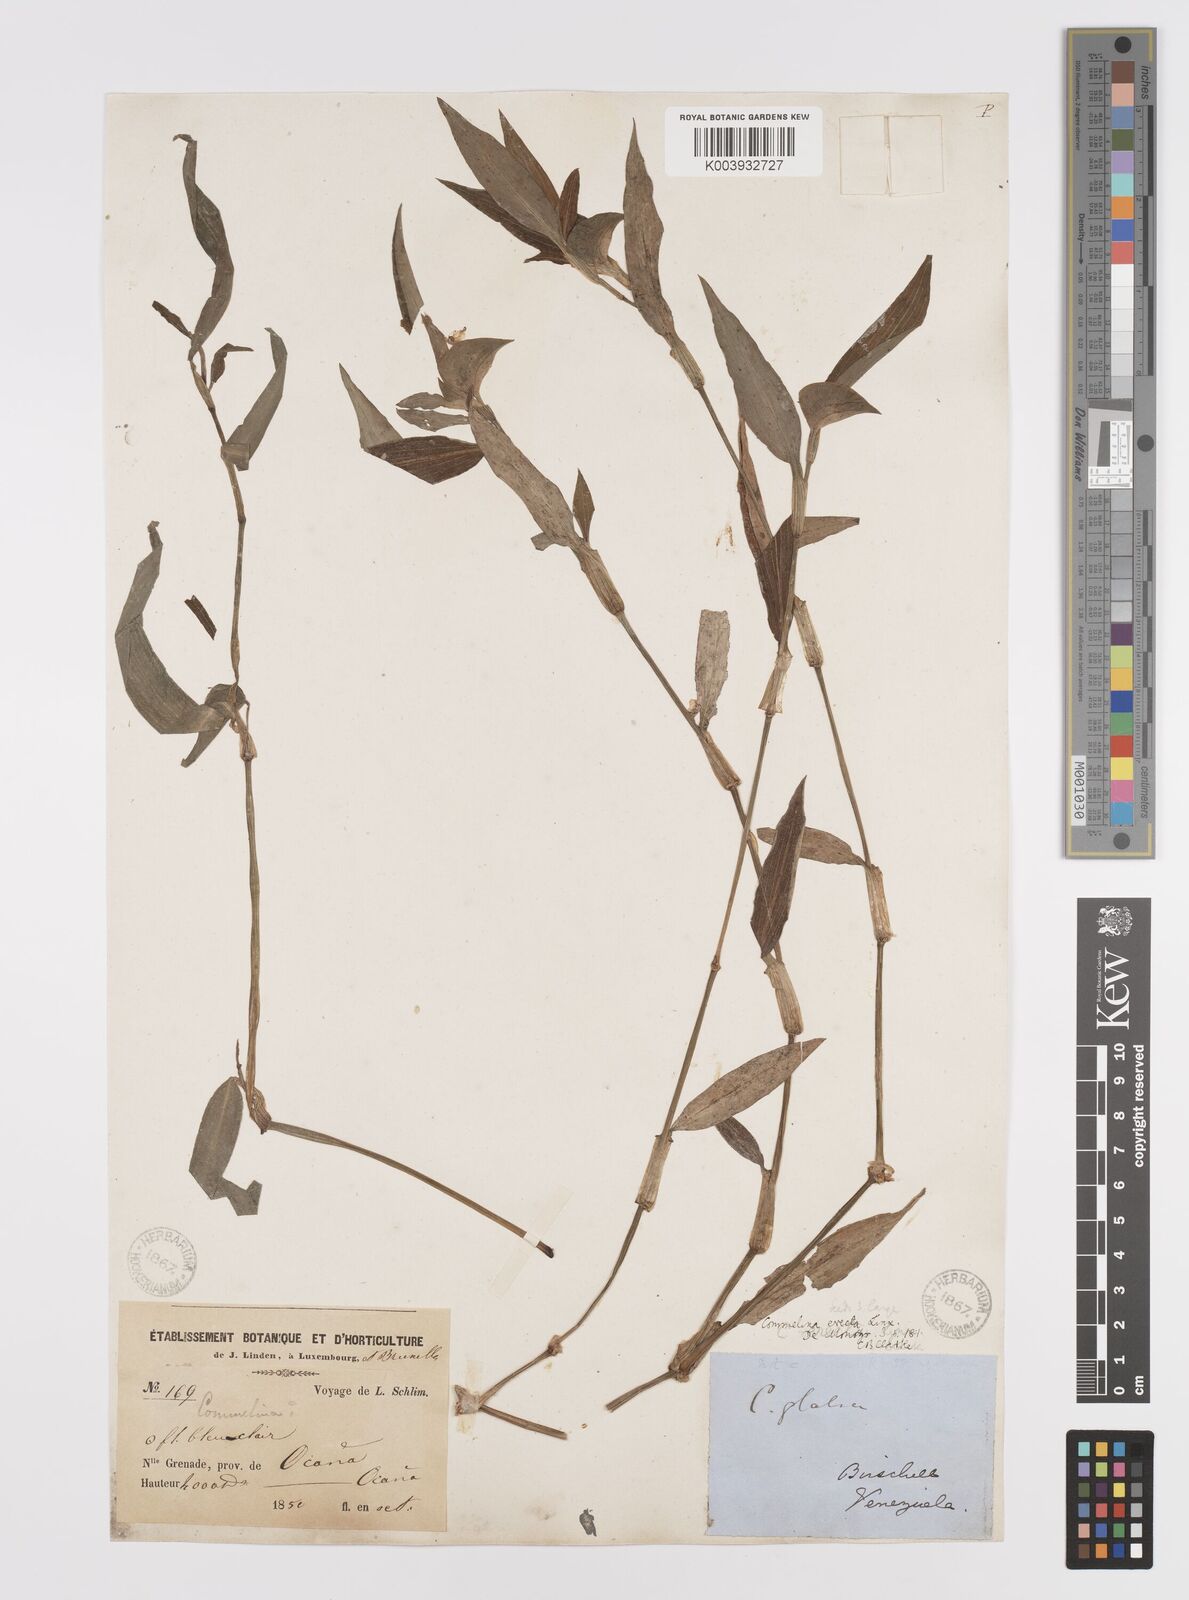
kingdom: Plantae
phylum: Tracheophyta
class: Liliopsida
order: Commelinales
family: Commelinaceae
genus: Commelina
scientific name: Commelina erecta
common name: Blousel blommetjie
